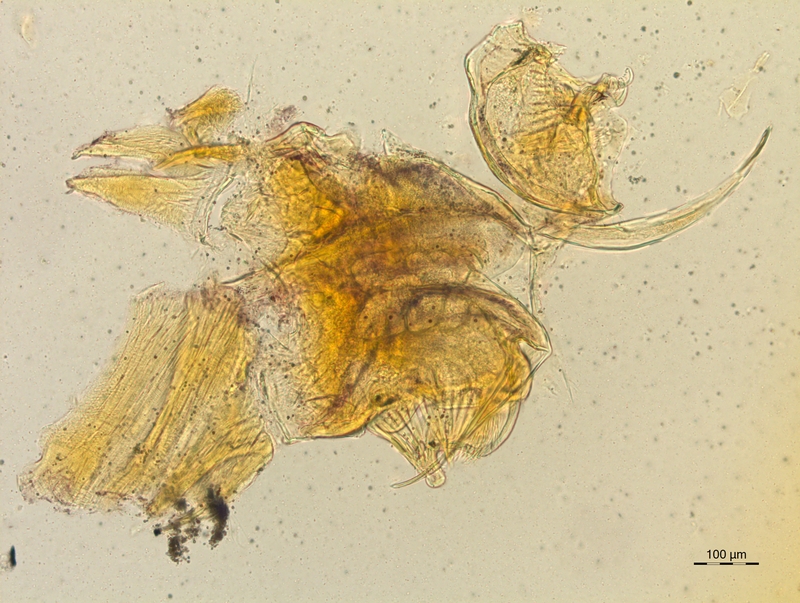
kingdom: Animalia
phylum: Arthropoda
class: Diplopoda
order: Chordeumatida
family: Craspedosomatidae
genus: Craspedosoma
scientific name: Craspedosoma rawlinsii
